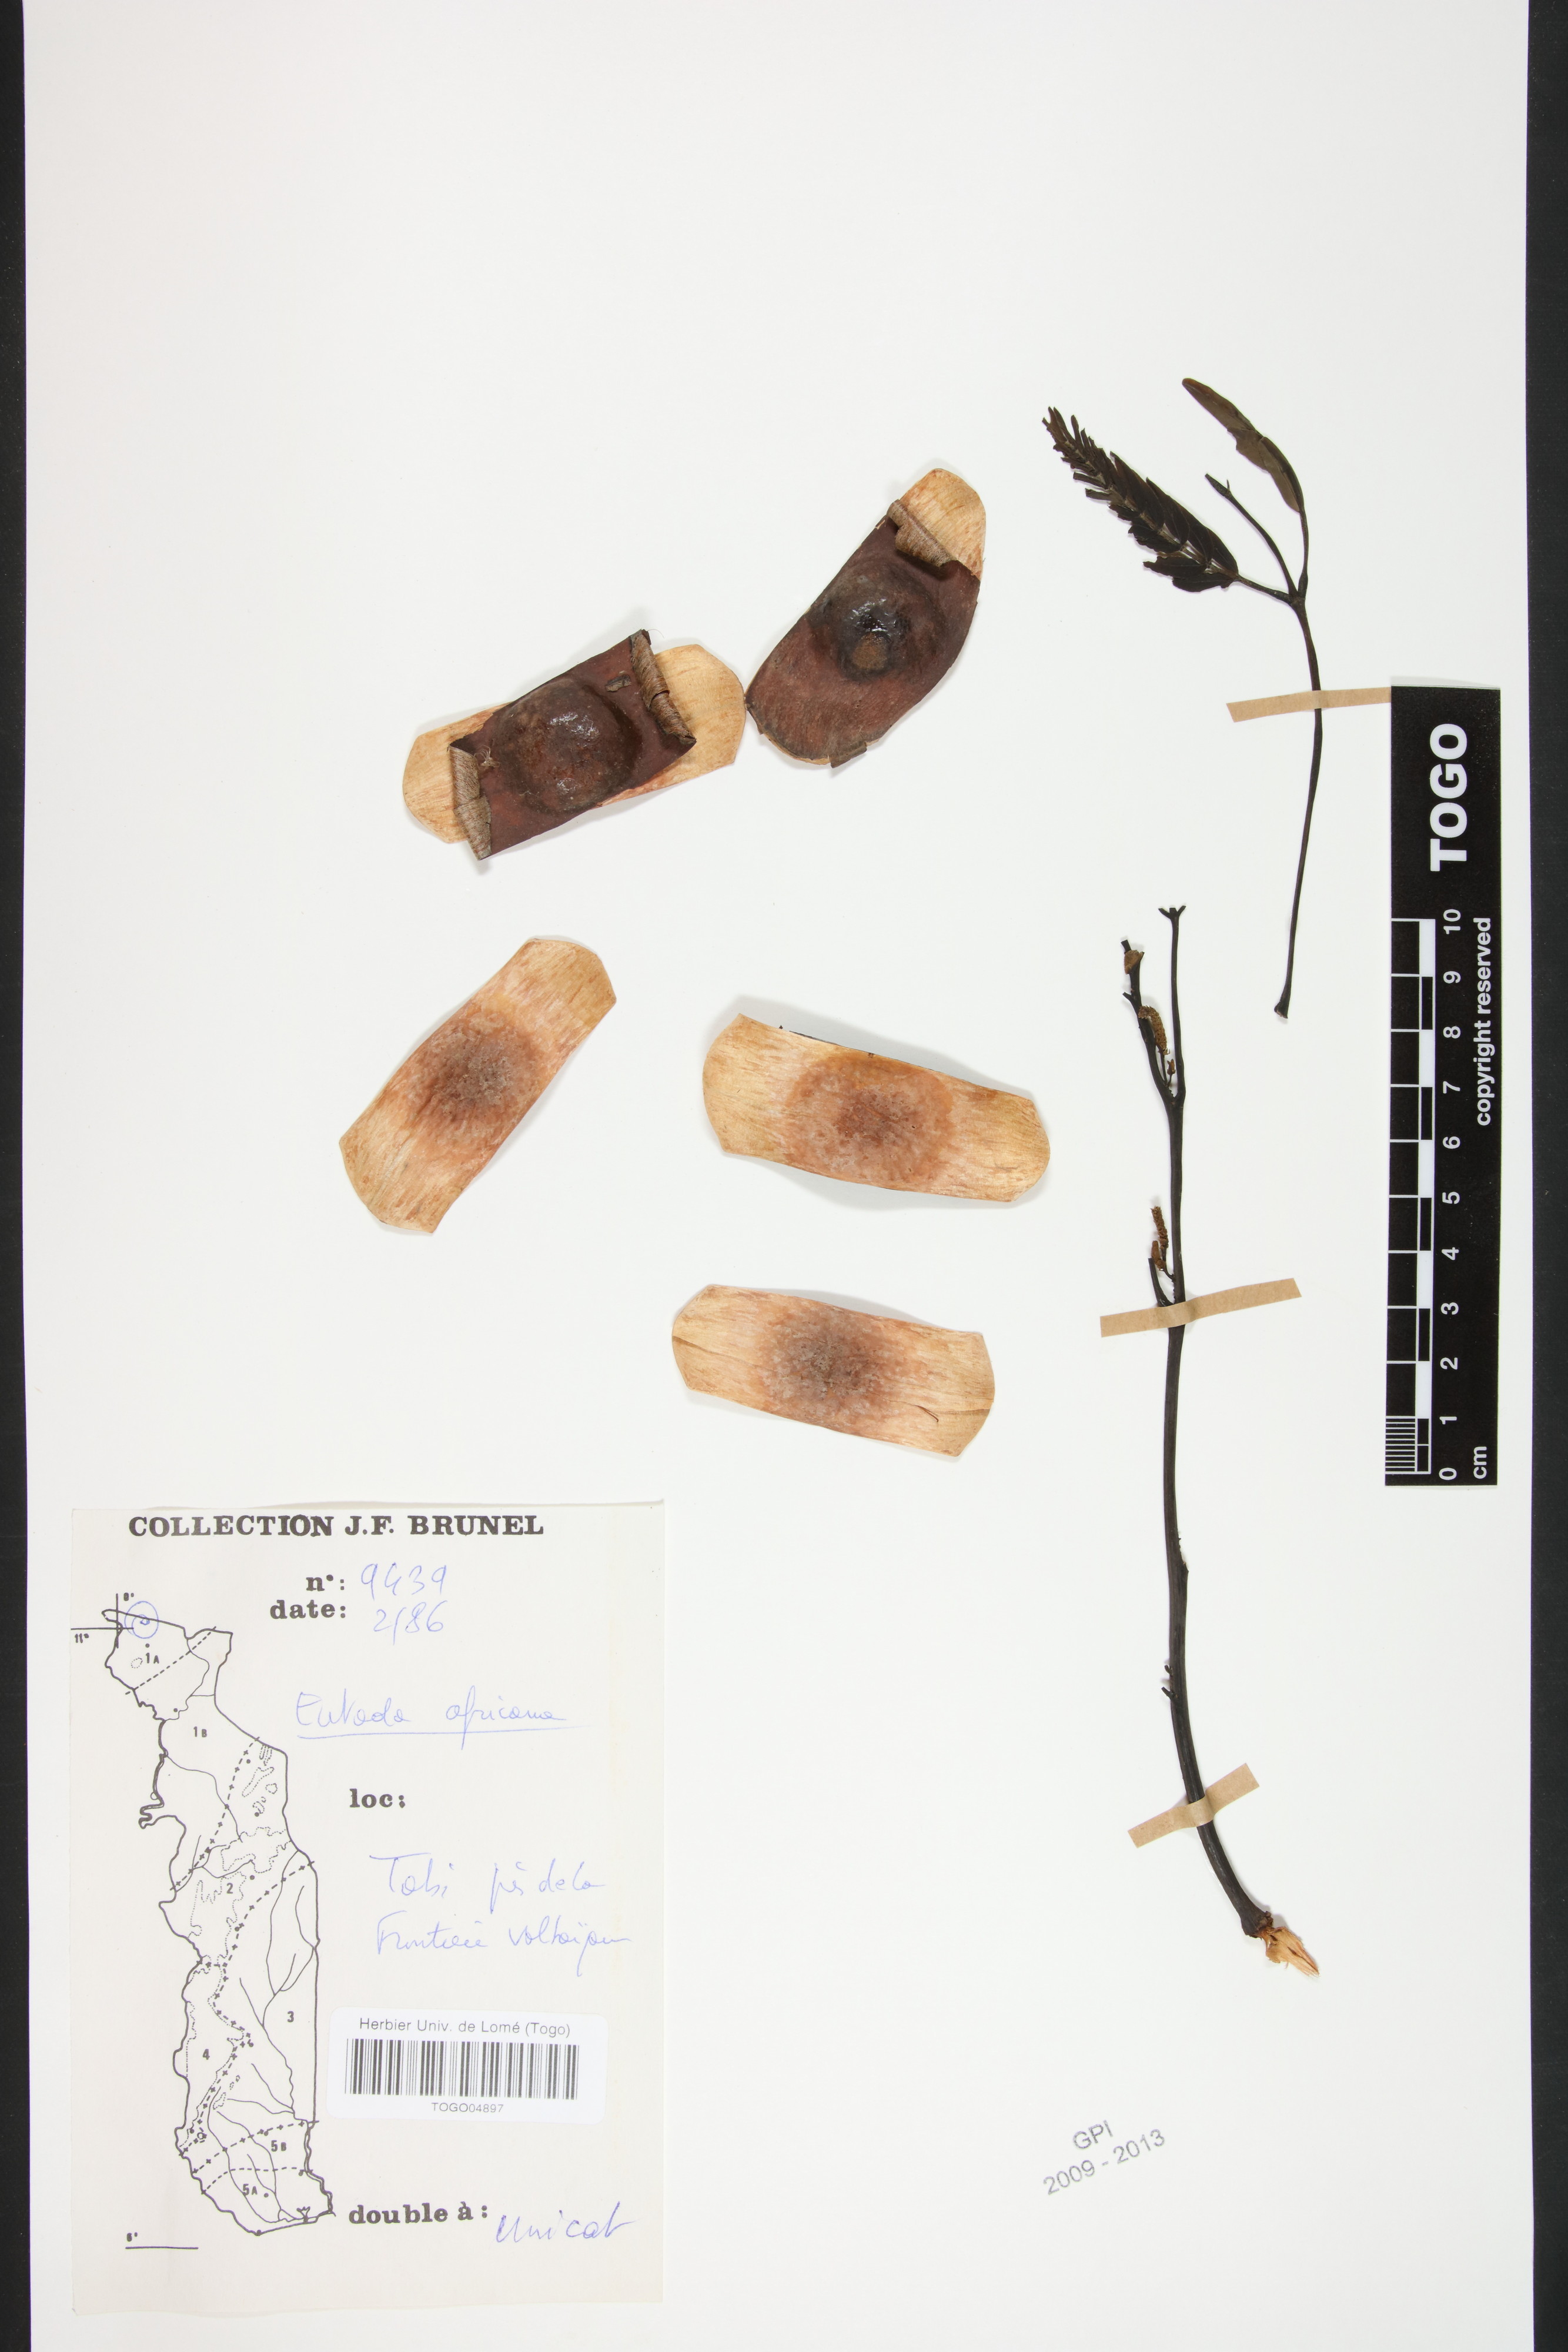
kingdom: Plantae
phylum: Tracheophyta
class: Magnoliopsida
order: Fabales
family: Fabaceae
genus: Entada
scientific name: Entada africana
